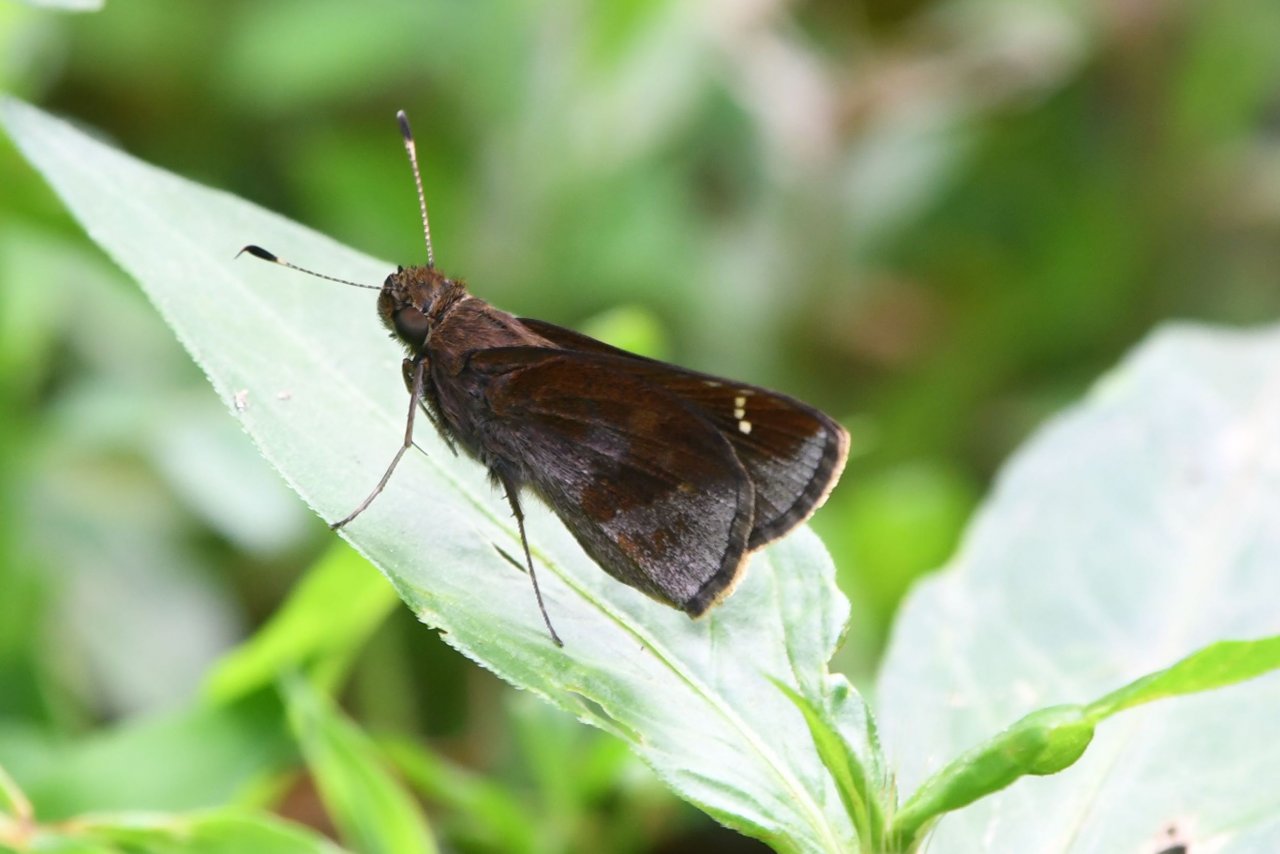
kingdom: Animalia
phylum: Arthropoda
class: Insecta
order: Lepidoptera
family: Hesperiidae
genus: Lerema
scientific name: Lerema accius
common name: Clouded Skipper
